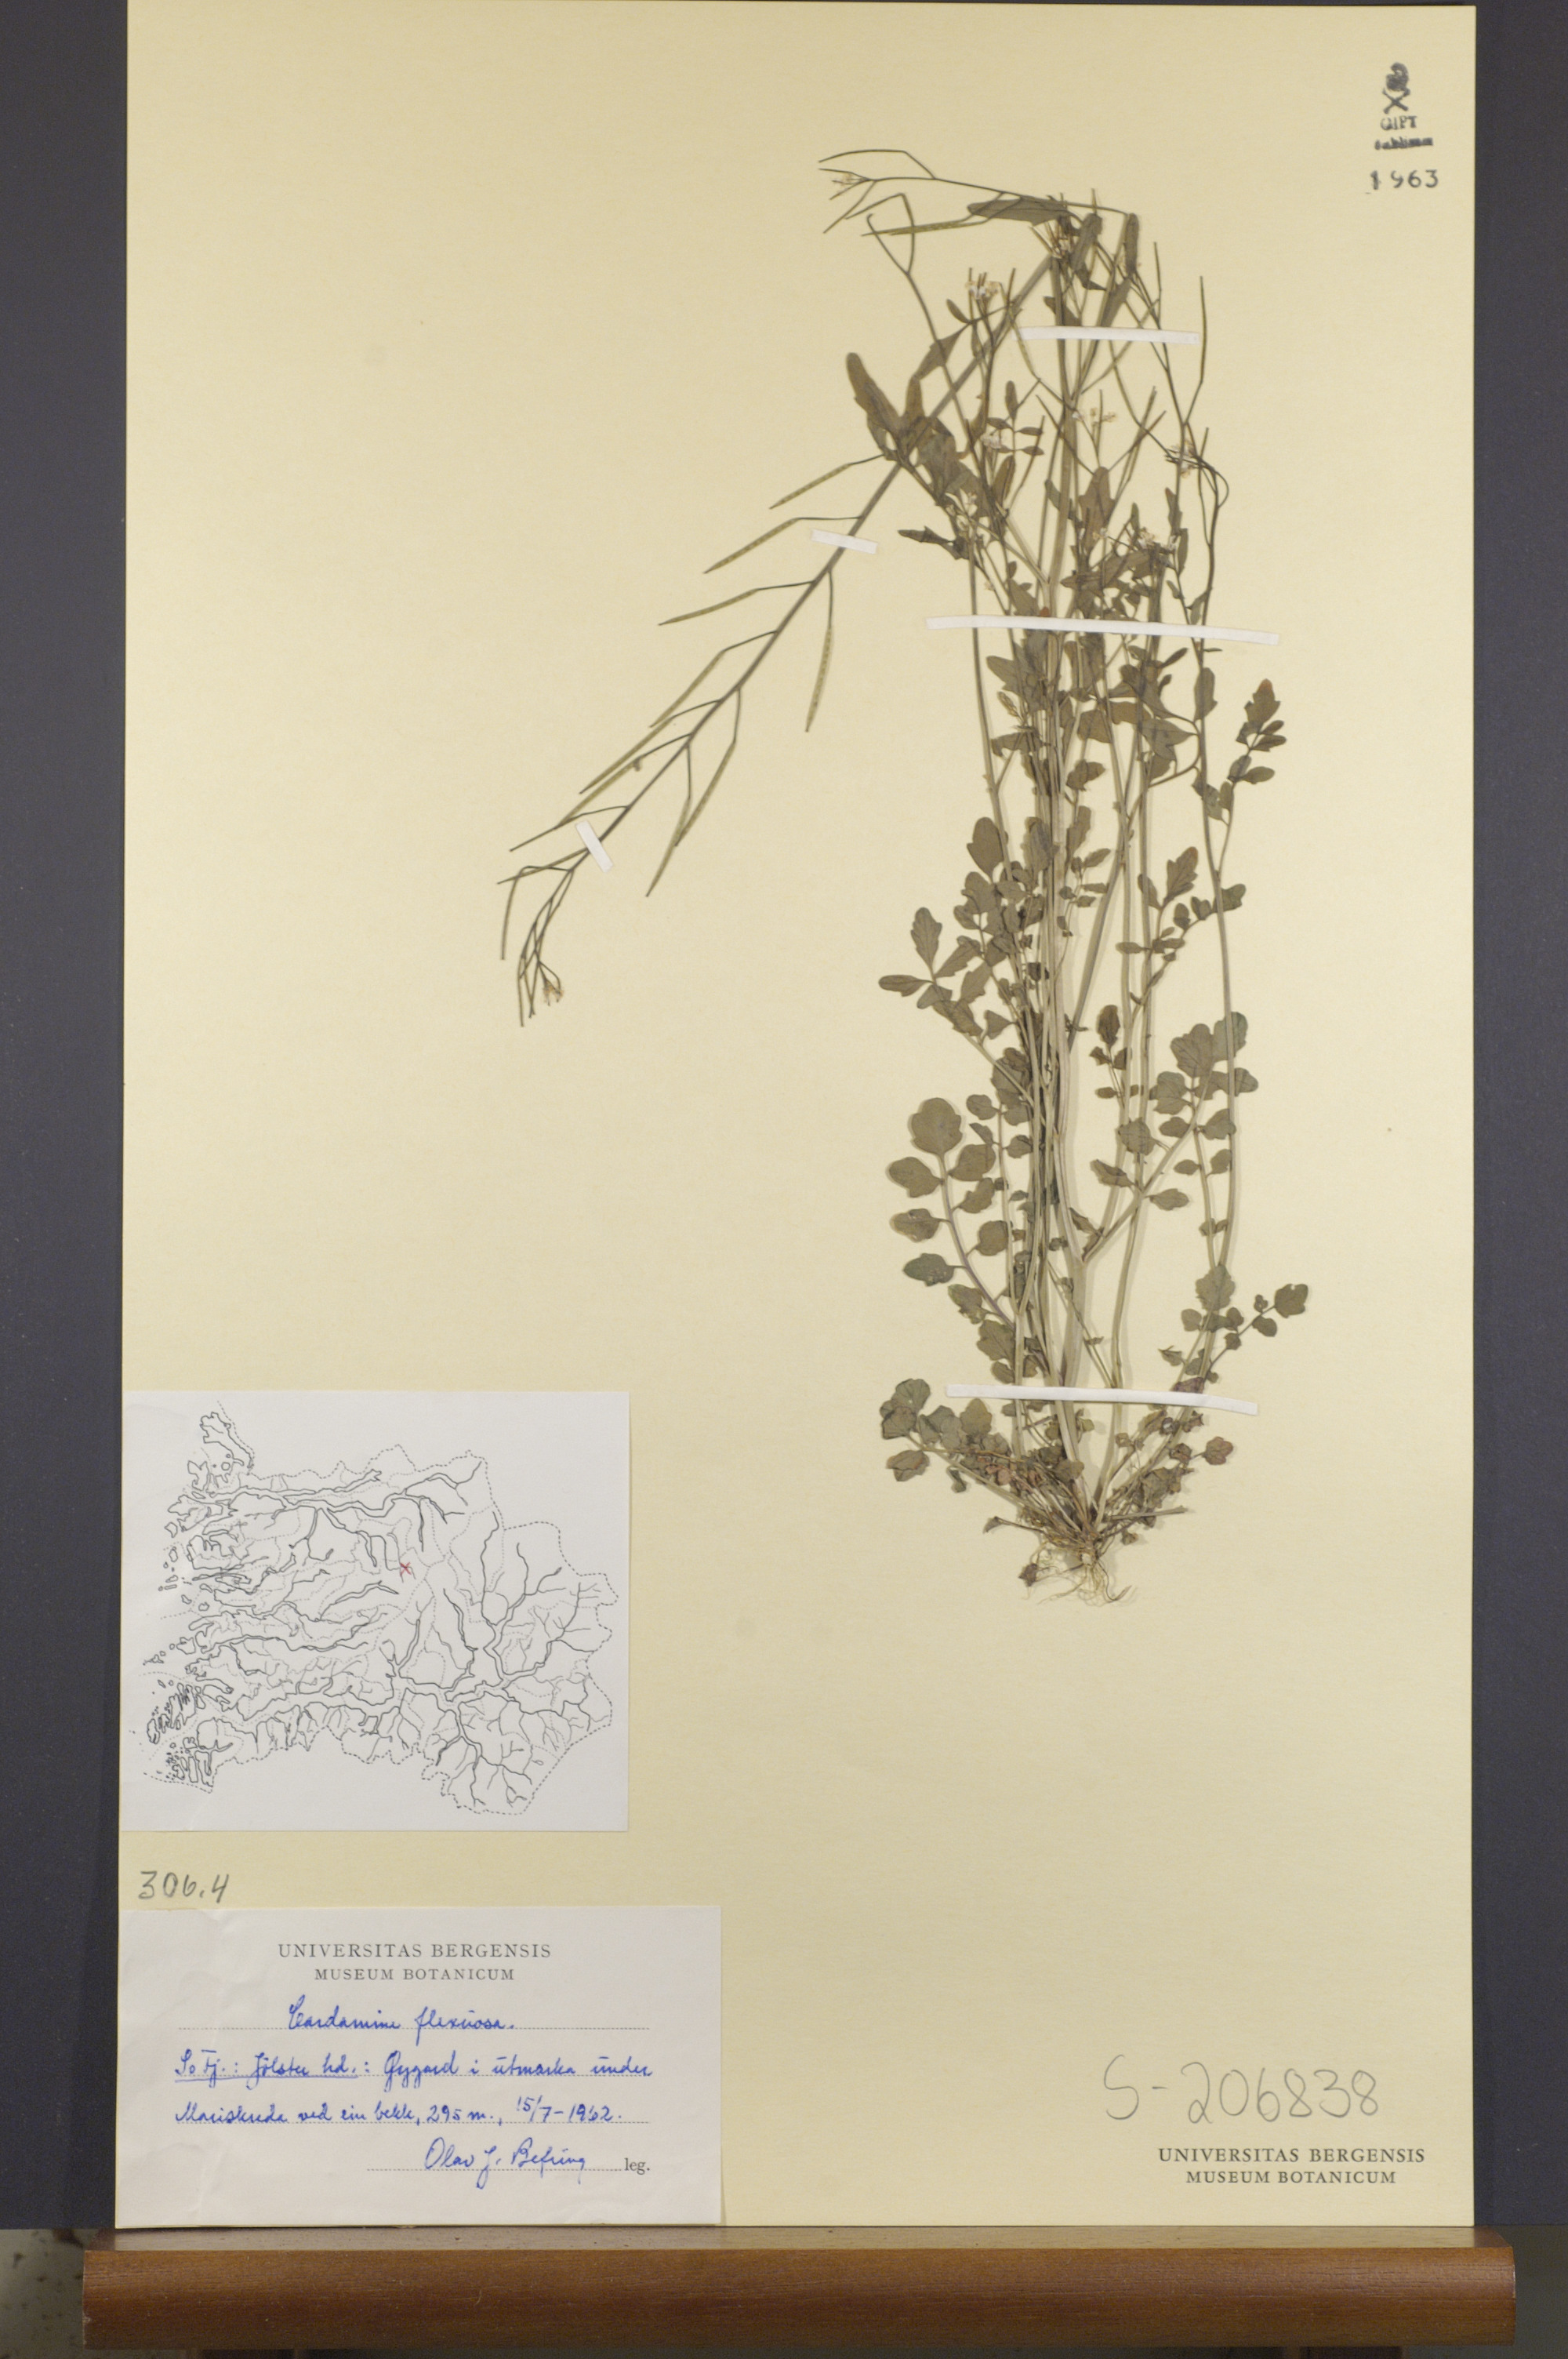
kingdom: Plantae
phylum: Tracheophyta
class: Magnoliopsida
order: Brassicales
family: Brassicaceae
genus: Cardamine
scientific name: Cardamine flexuosa
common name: Woodland bittercress
